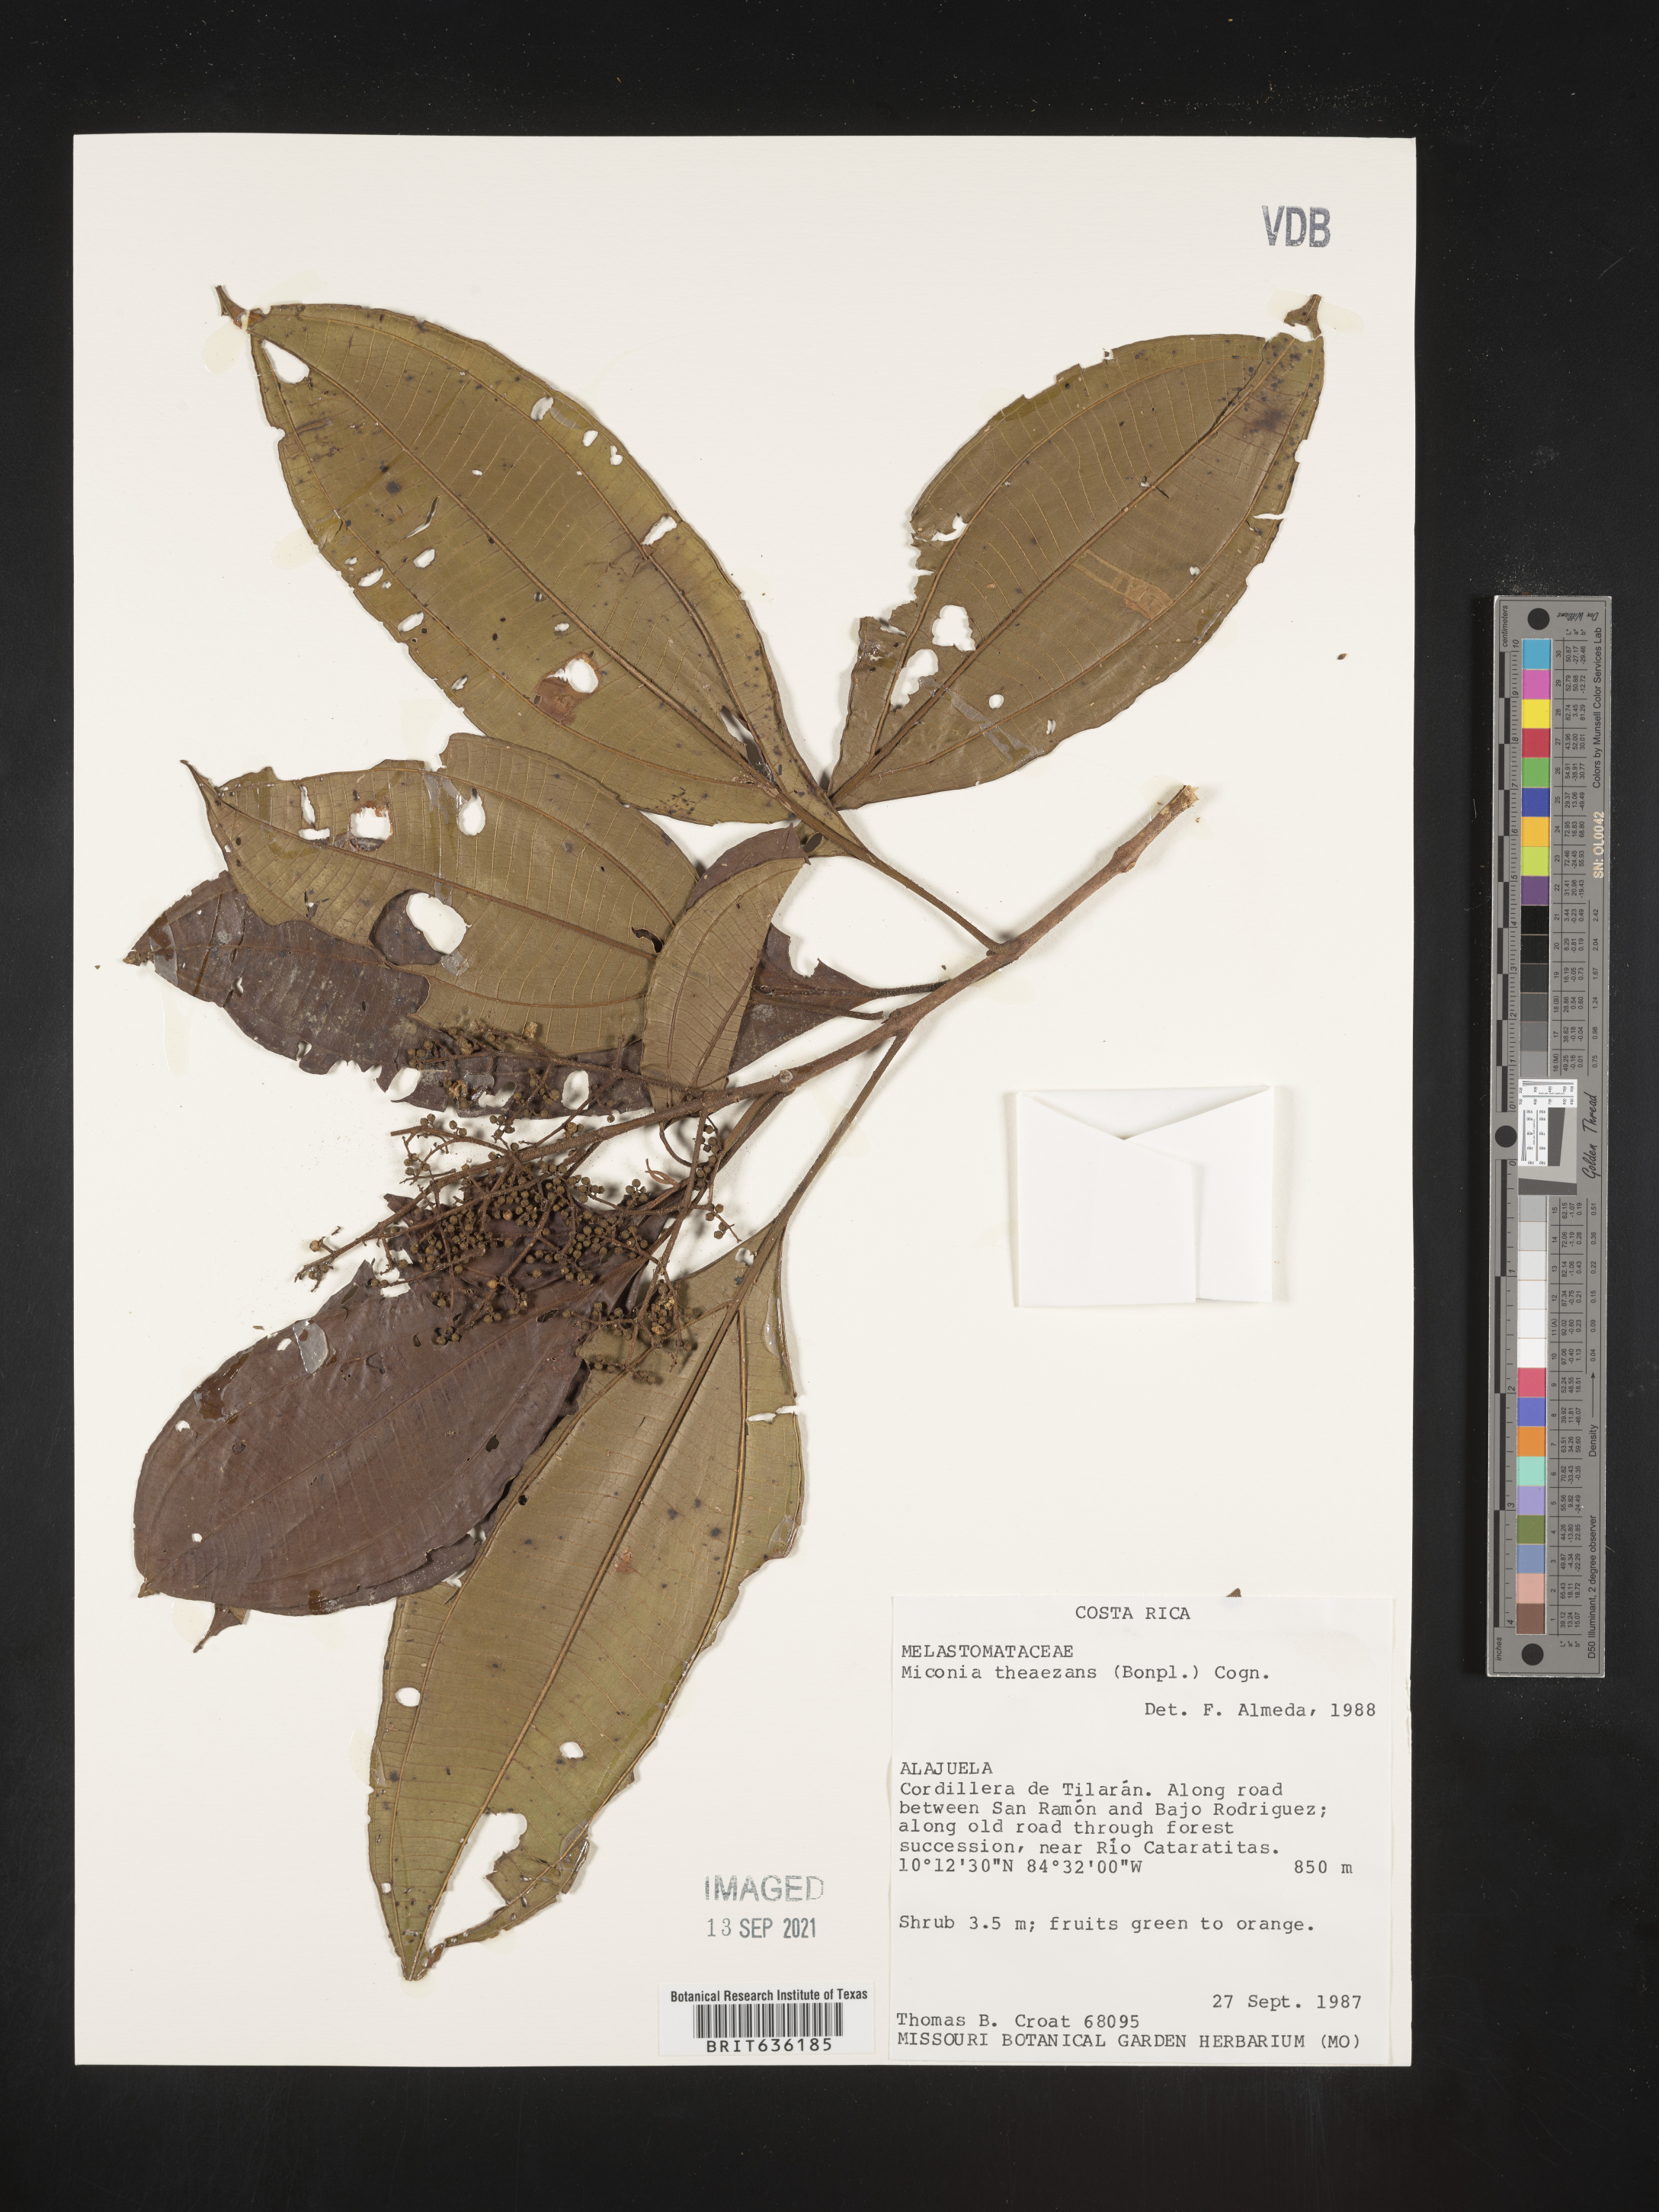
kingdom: Plantae
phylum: Tracheophyta
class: Magnoliopsida
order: Myrtales
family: Melastomataceae
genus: Miconia
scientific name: Miconia
